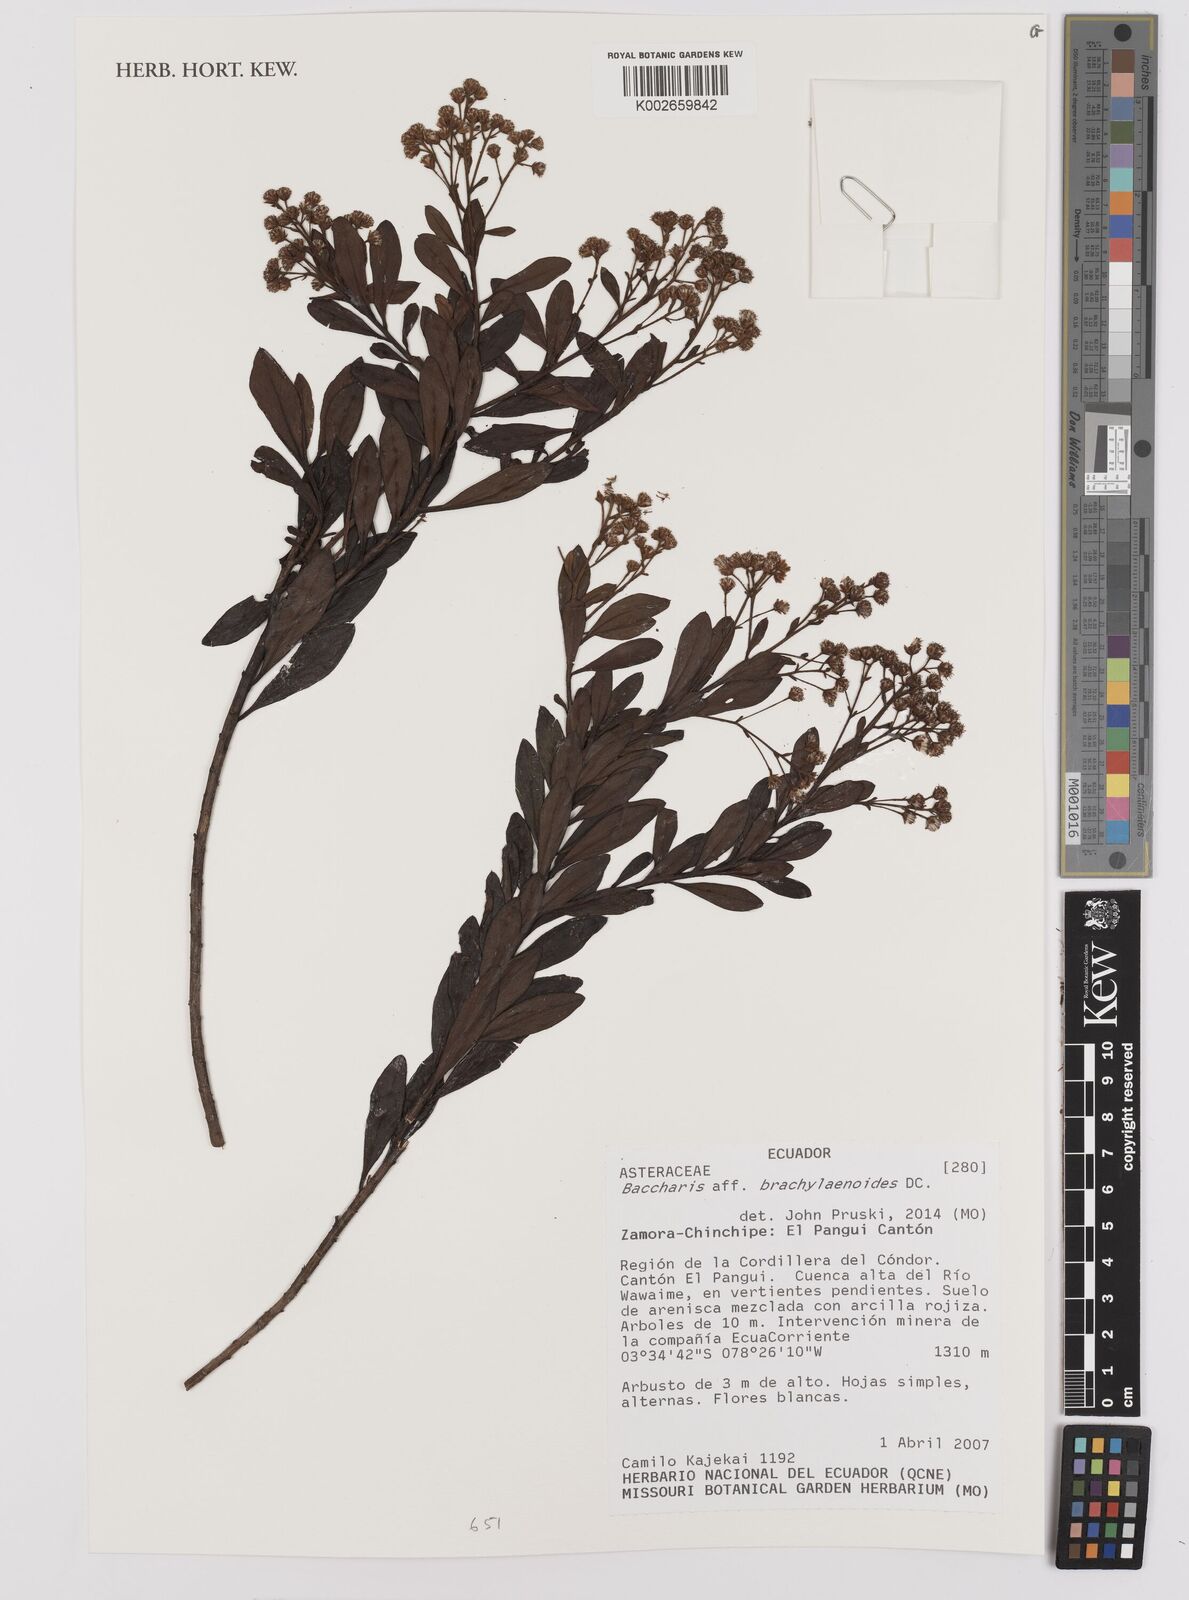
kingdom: Plantae
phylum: Tracheophyta
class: Magnoliopsida
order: Asterales
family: Asteraceae
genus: Baccharis
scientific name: Baccharis oblongifolia
